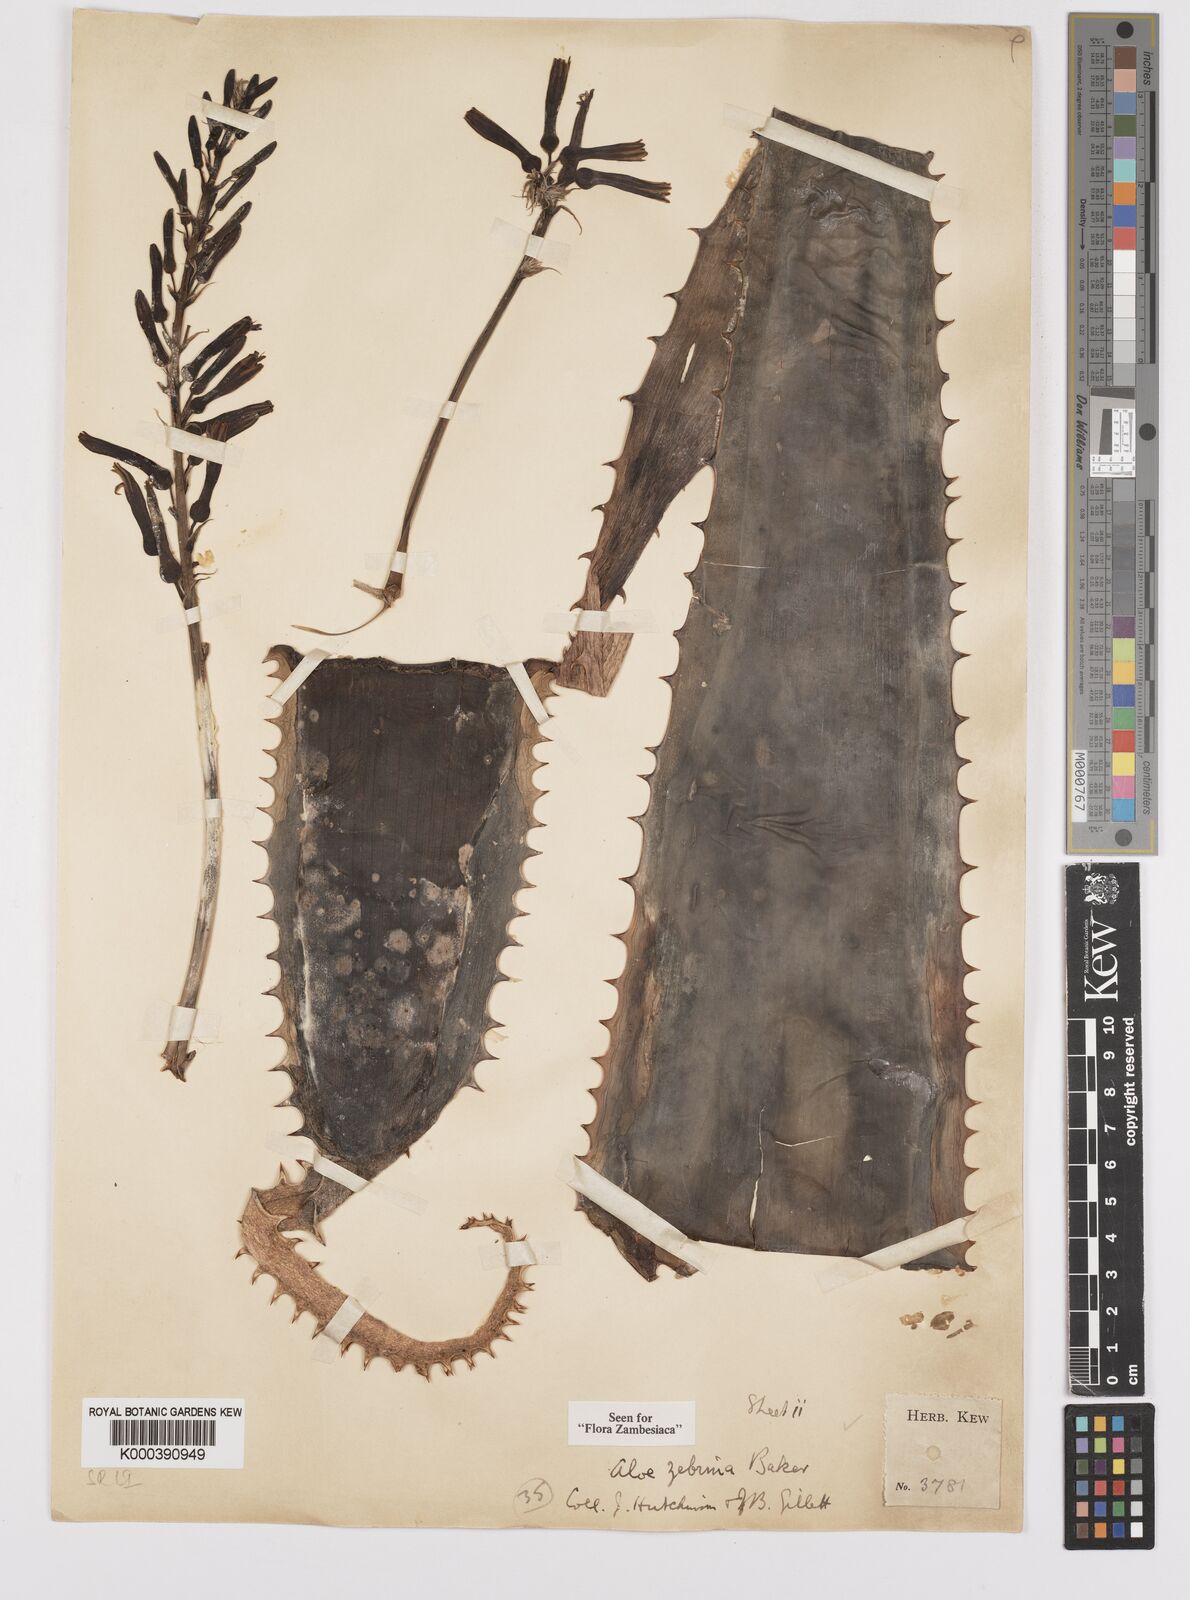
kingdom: Plantae
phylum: Tracheophyta
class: Liliopsida
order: Asparagales
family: Asphodelaceae
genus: Aloe
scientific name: Aloe zebrina
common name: Zebra-leaf aloe
